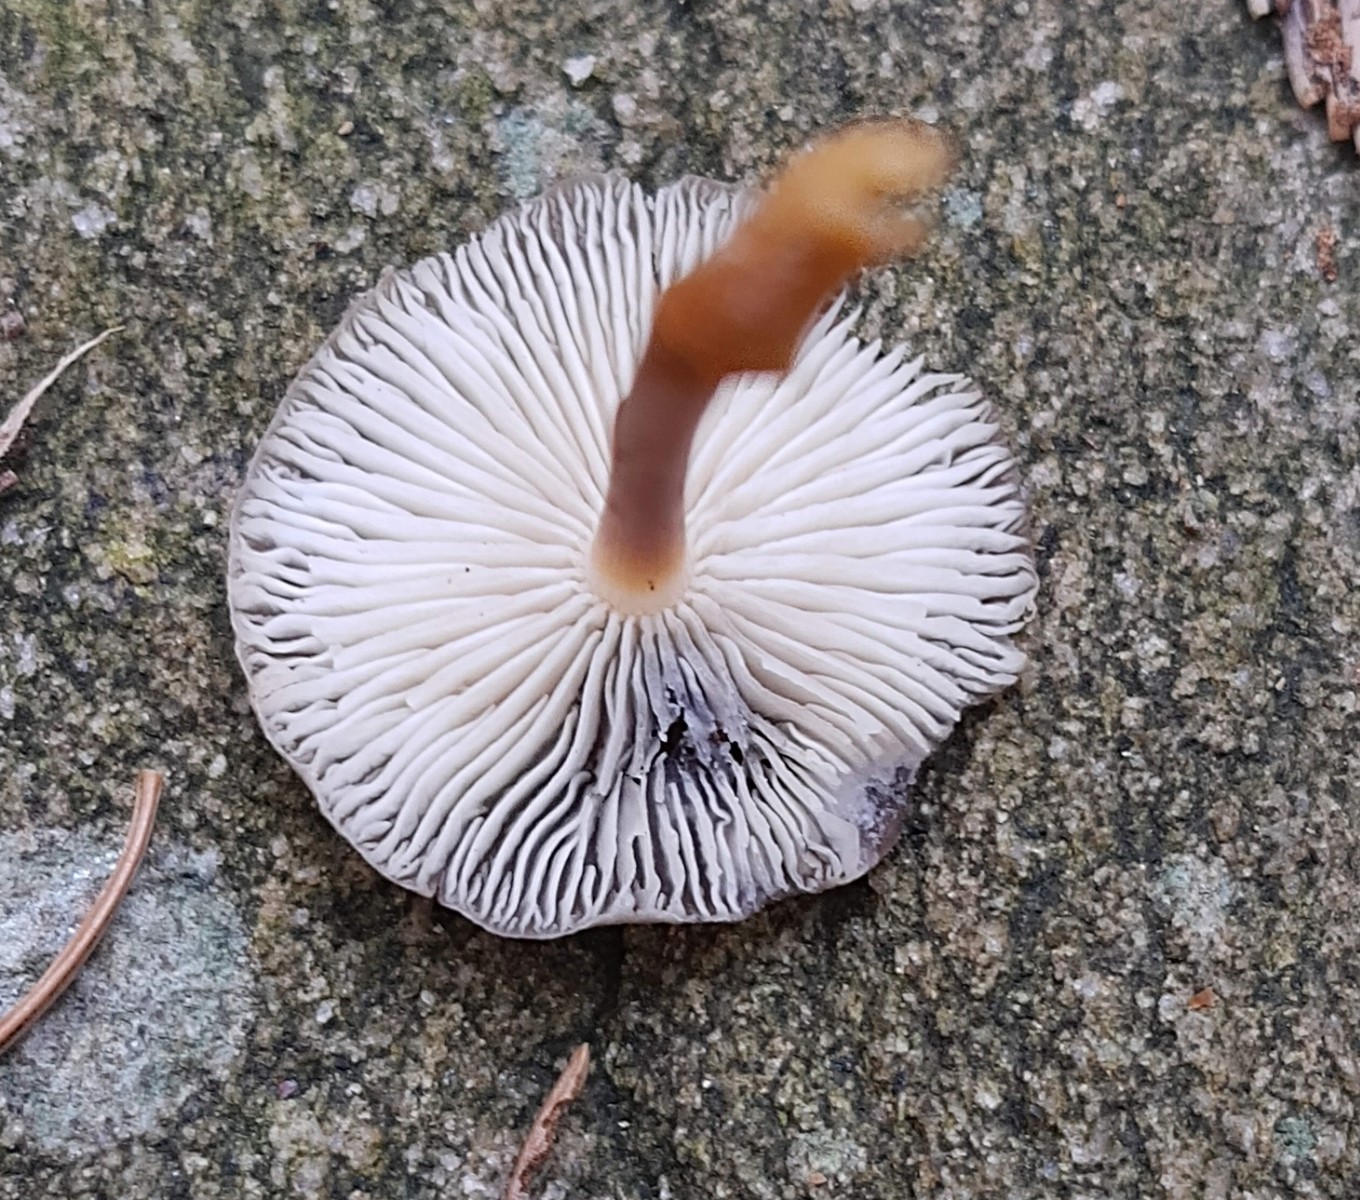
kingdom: Fungi
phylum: Basidiomycota
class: Agaricomycetes
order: Agaricales
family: Physalacriaceae
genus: Strobilurus
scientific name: Strobilurus esculentus
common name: gran-koglehat
